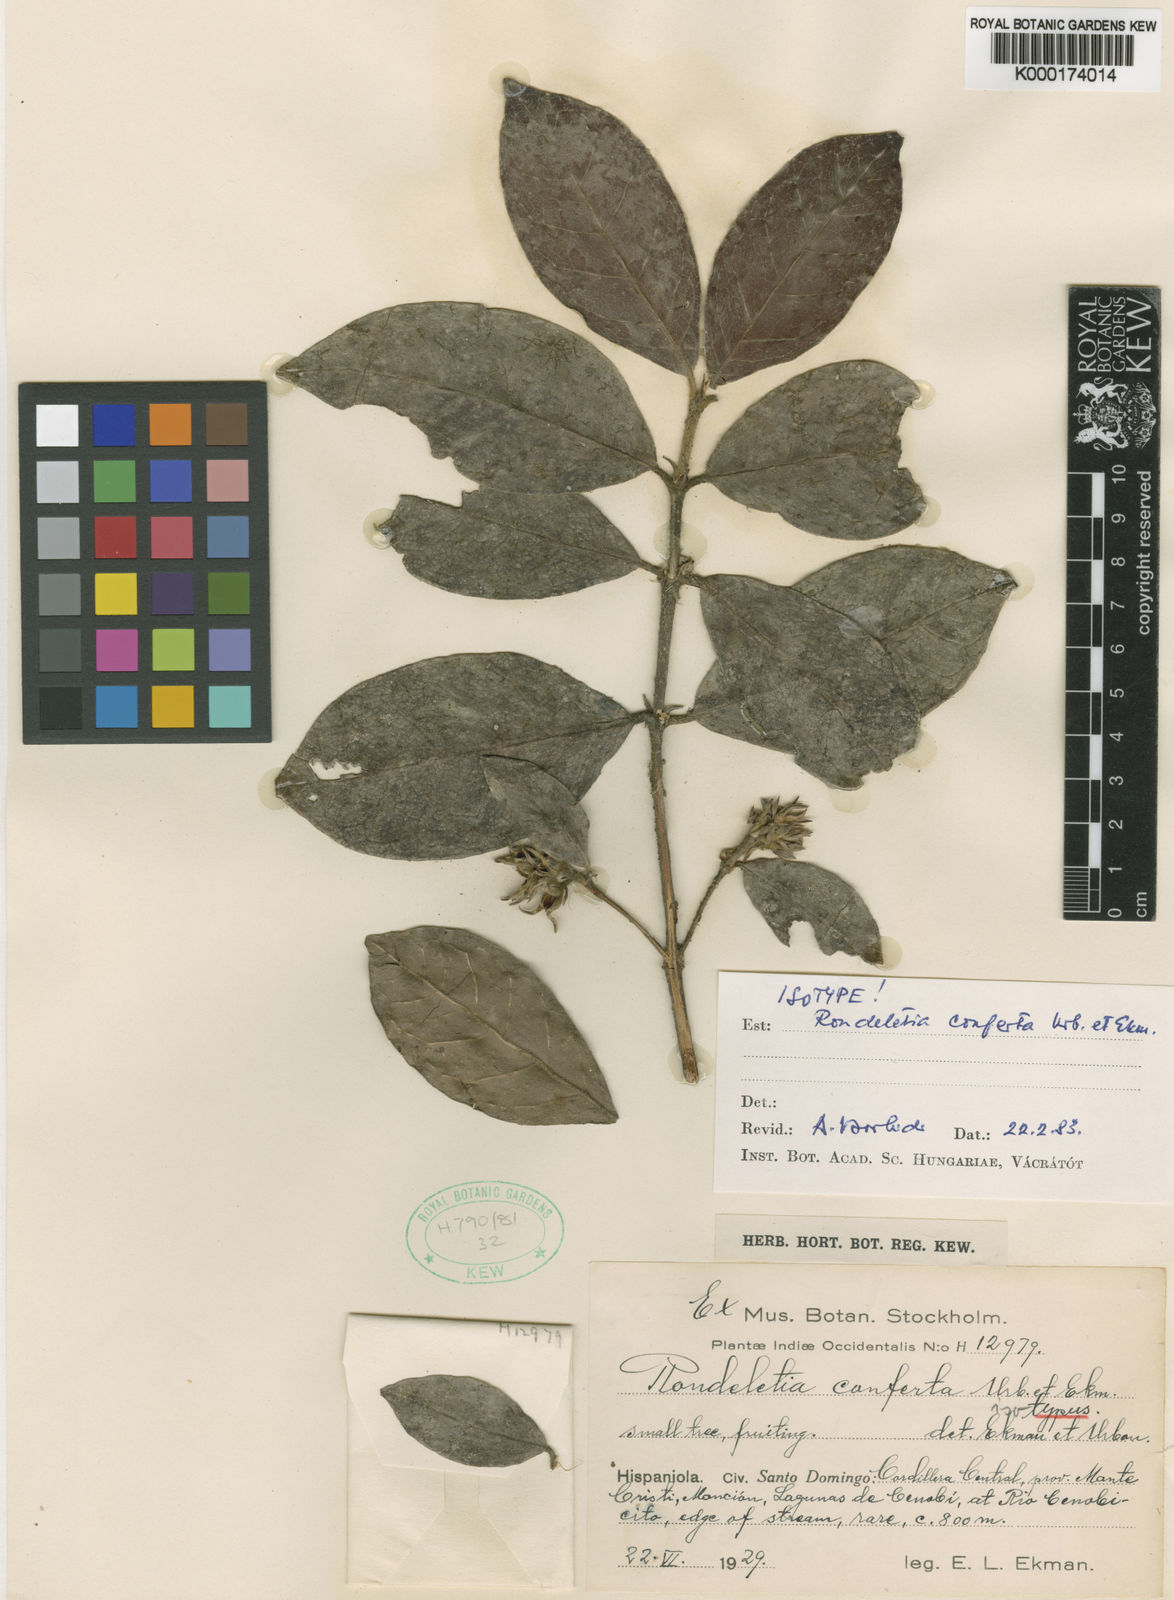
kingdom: Plantae
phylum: Tracheophyta
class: Magnoliopsida
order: Gentianales
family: Rubiaceae
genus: Rondeletia
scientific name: Rondeletia conferta
